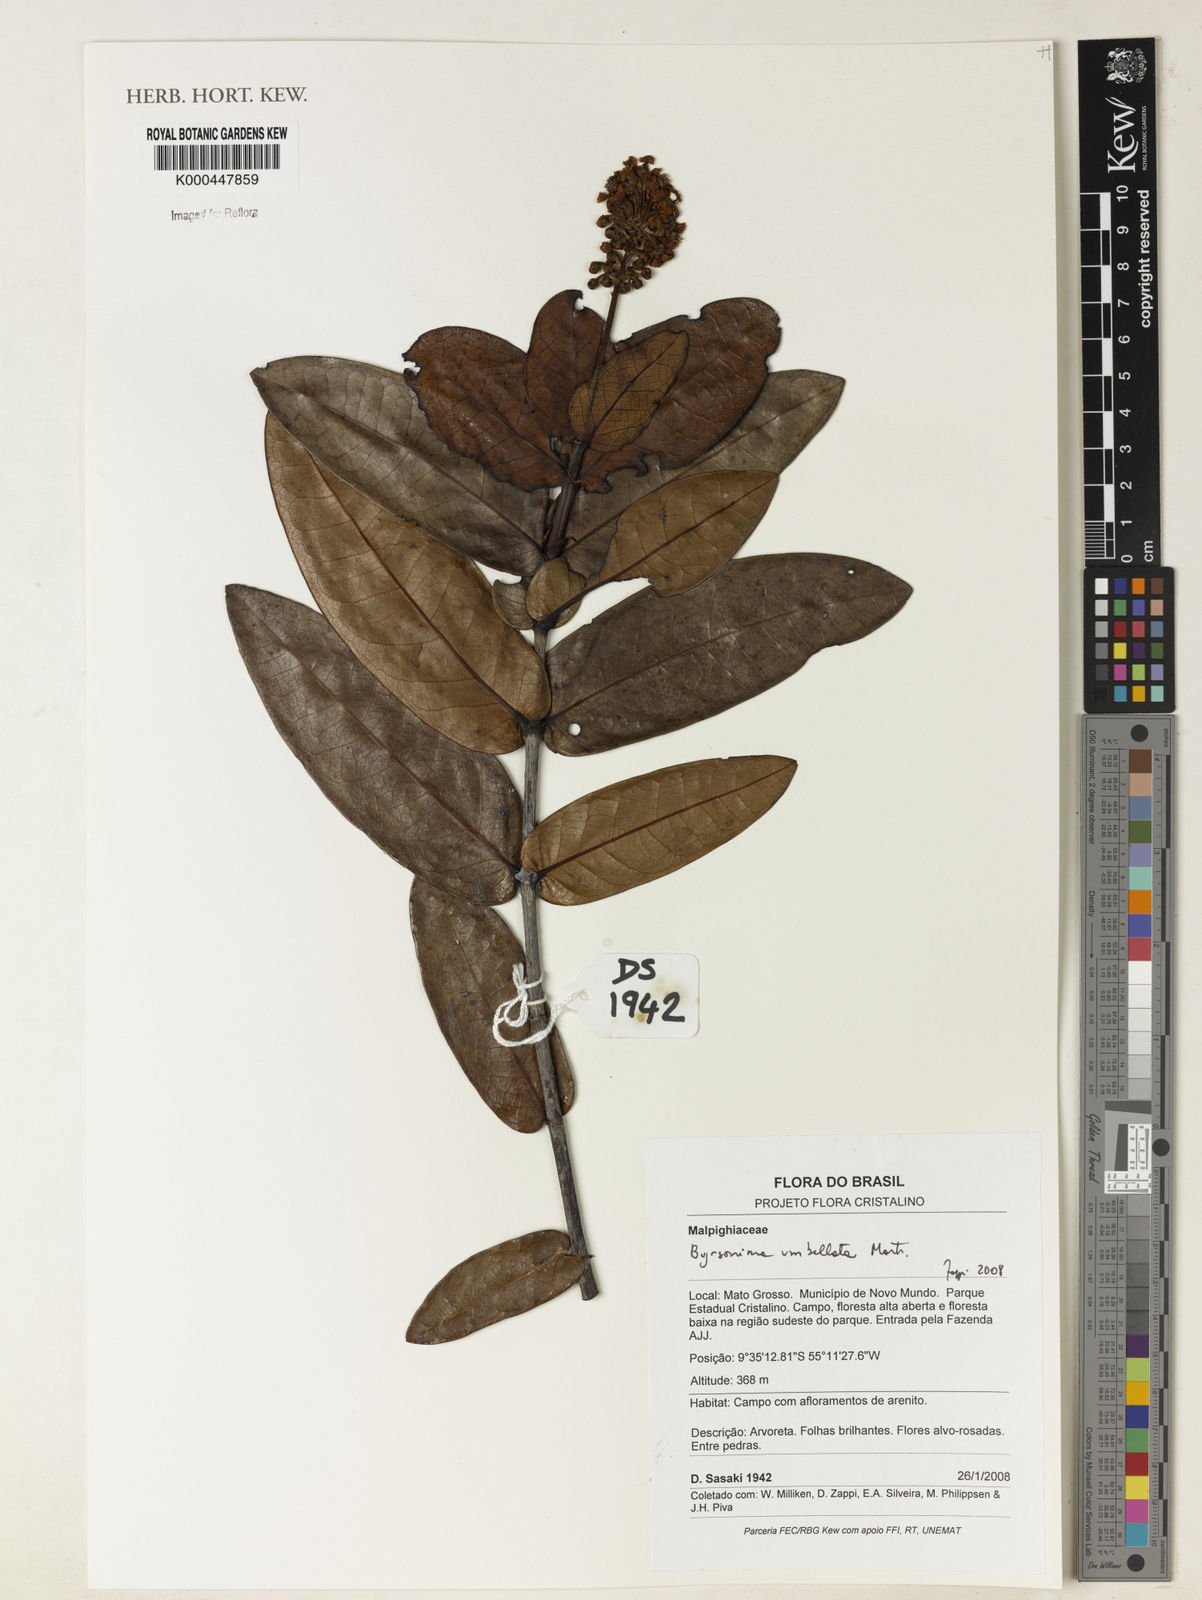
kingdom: Plantae
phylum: Tracheophyta
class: Magnoliopsida
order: Malpighiales
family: Malpighiaceae
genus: Byrsonima
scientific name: Byrsonima
